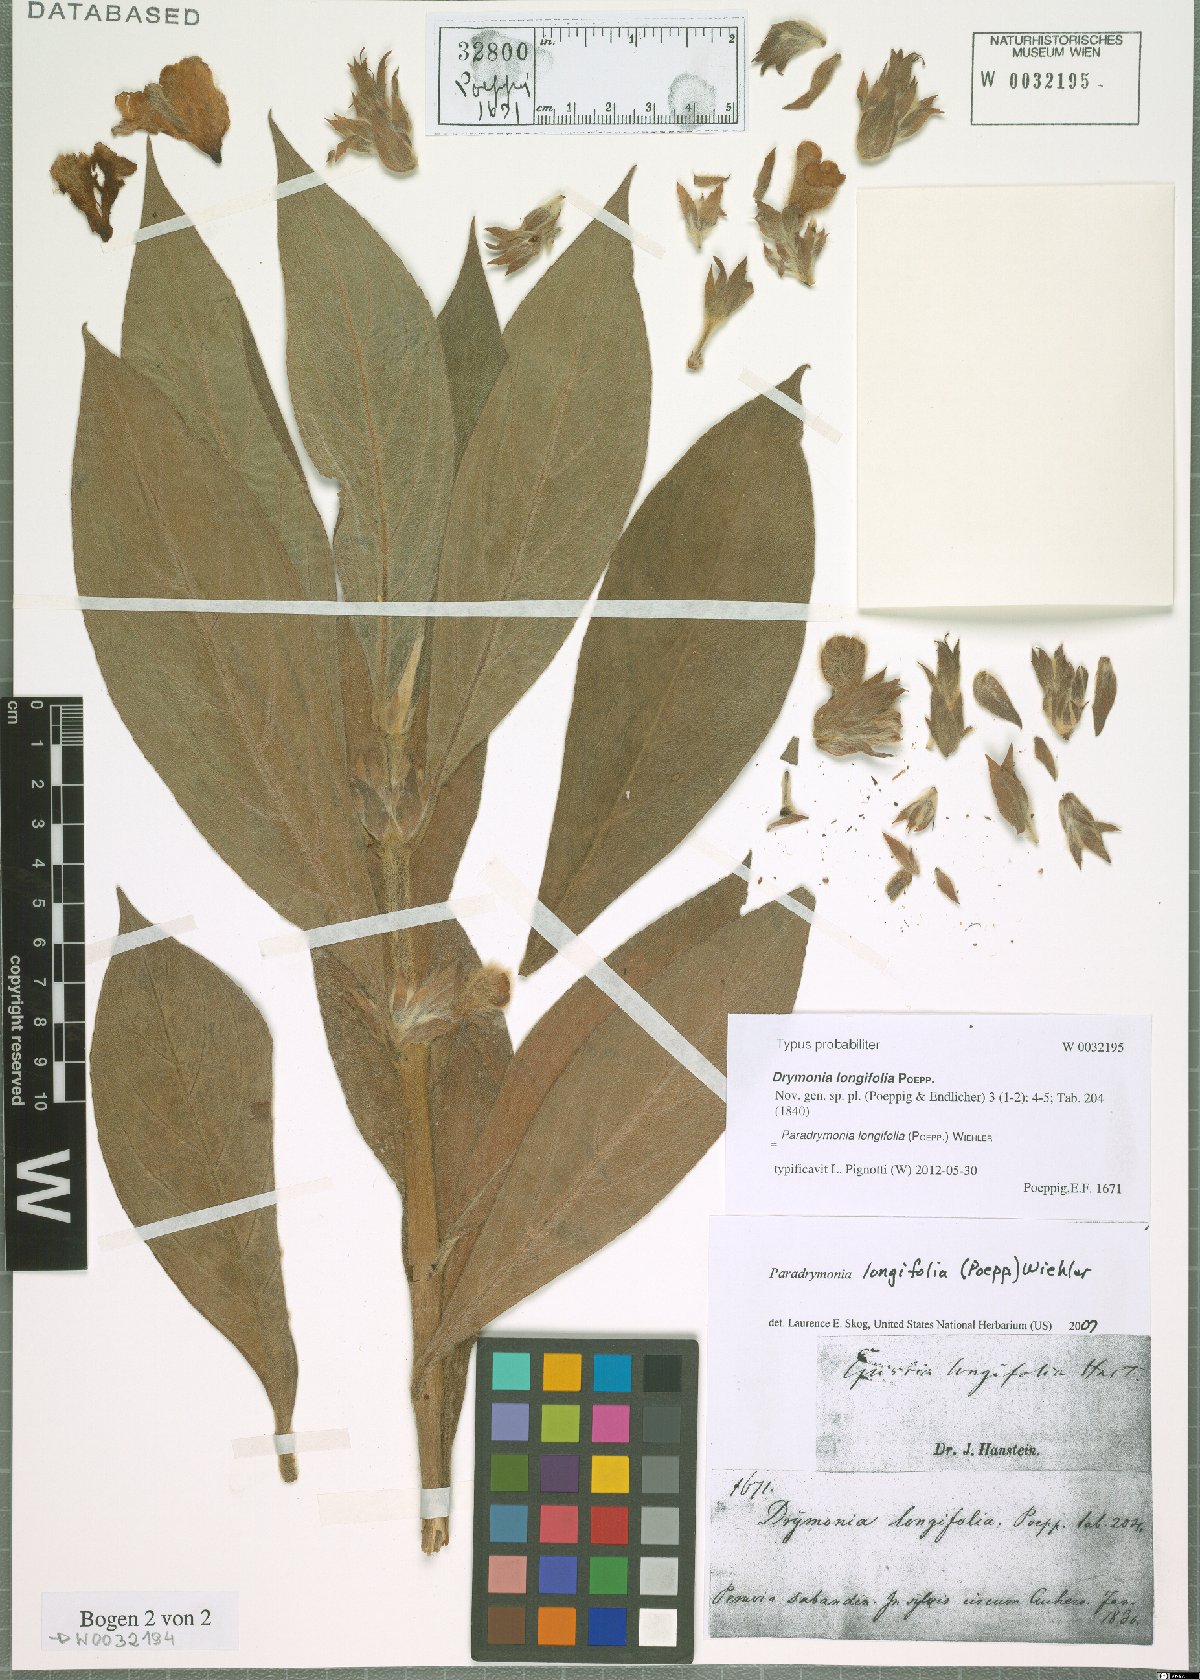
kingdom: Plantae
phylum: Tracheophyta
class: Magnoliopsida
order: Lamiales
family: Gesneriaceae
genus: Paradrymonia
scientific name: Paradrymonia longifolia
